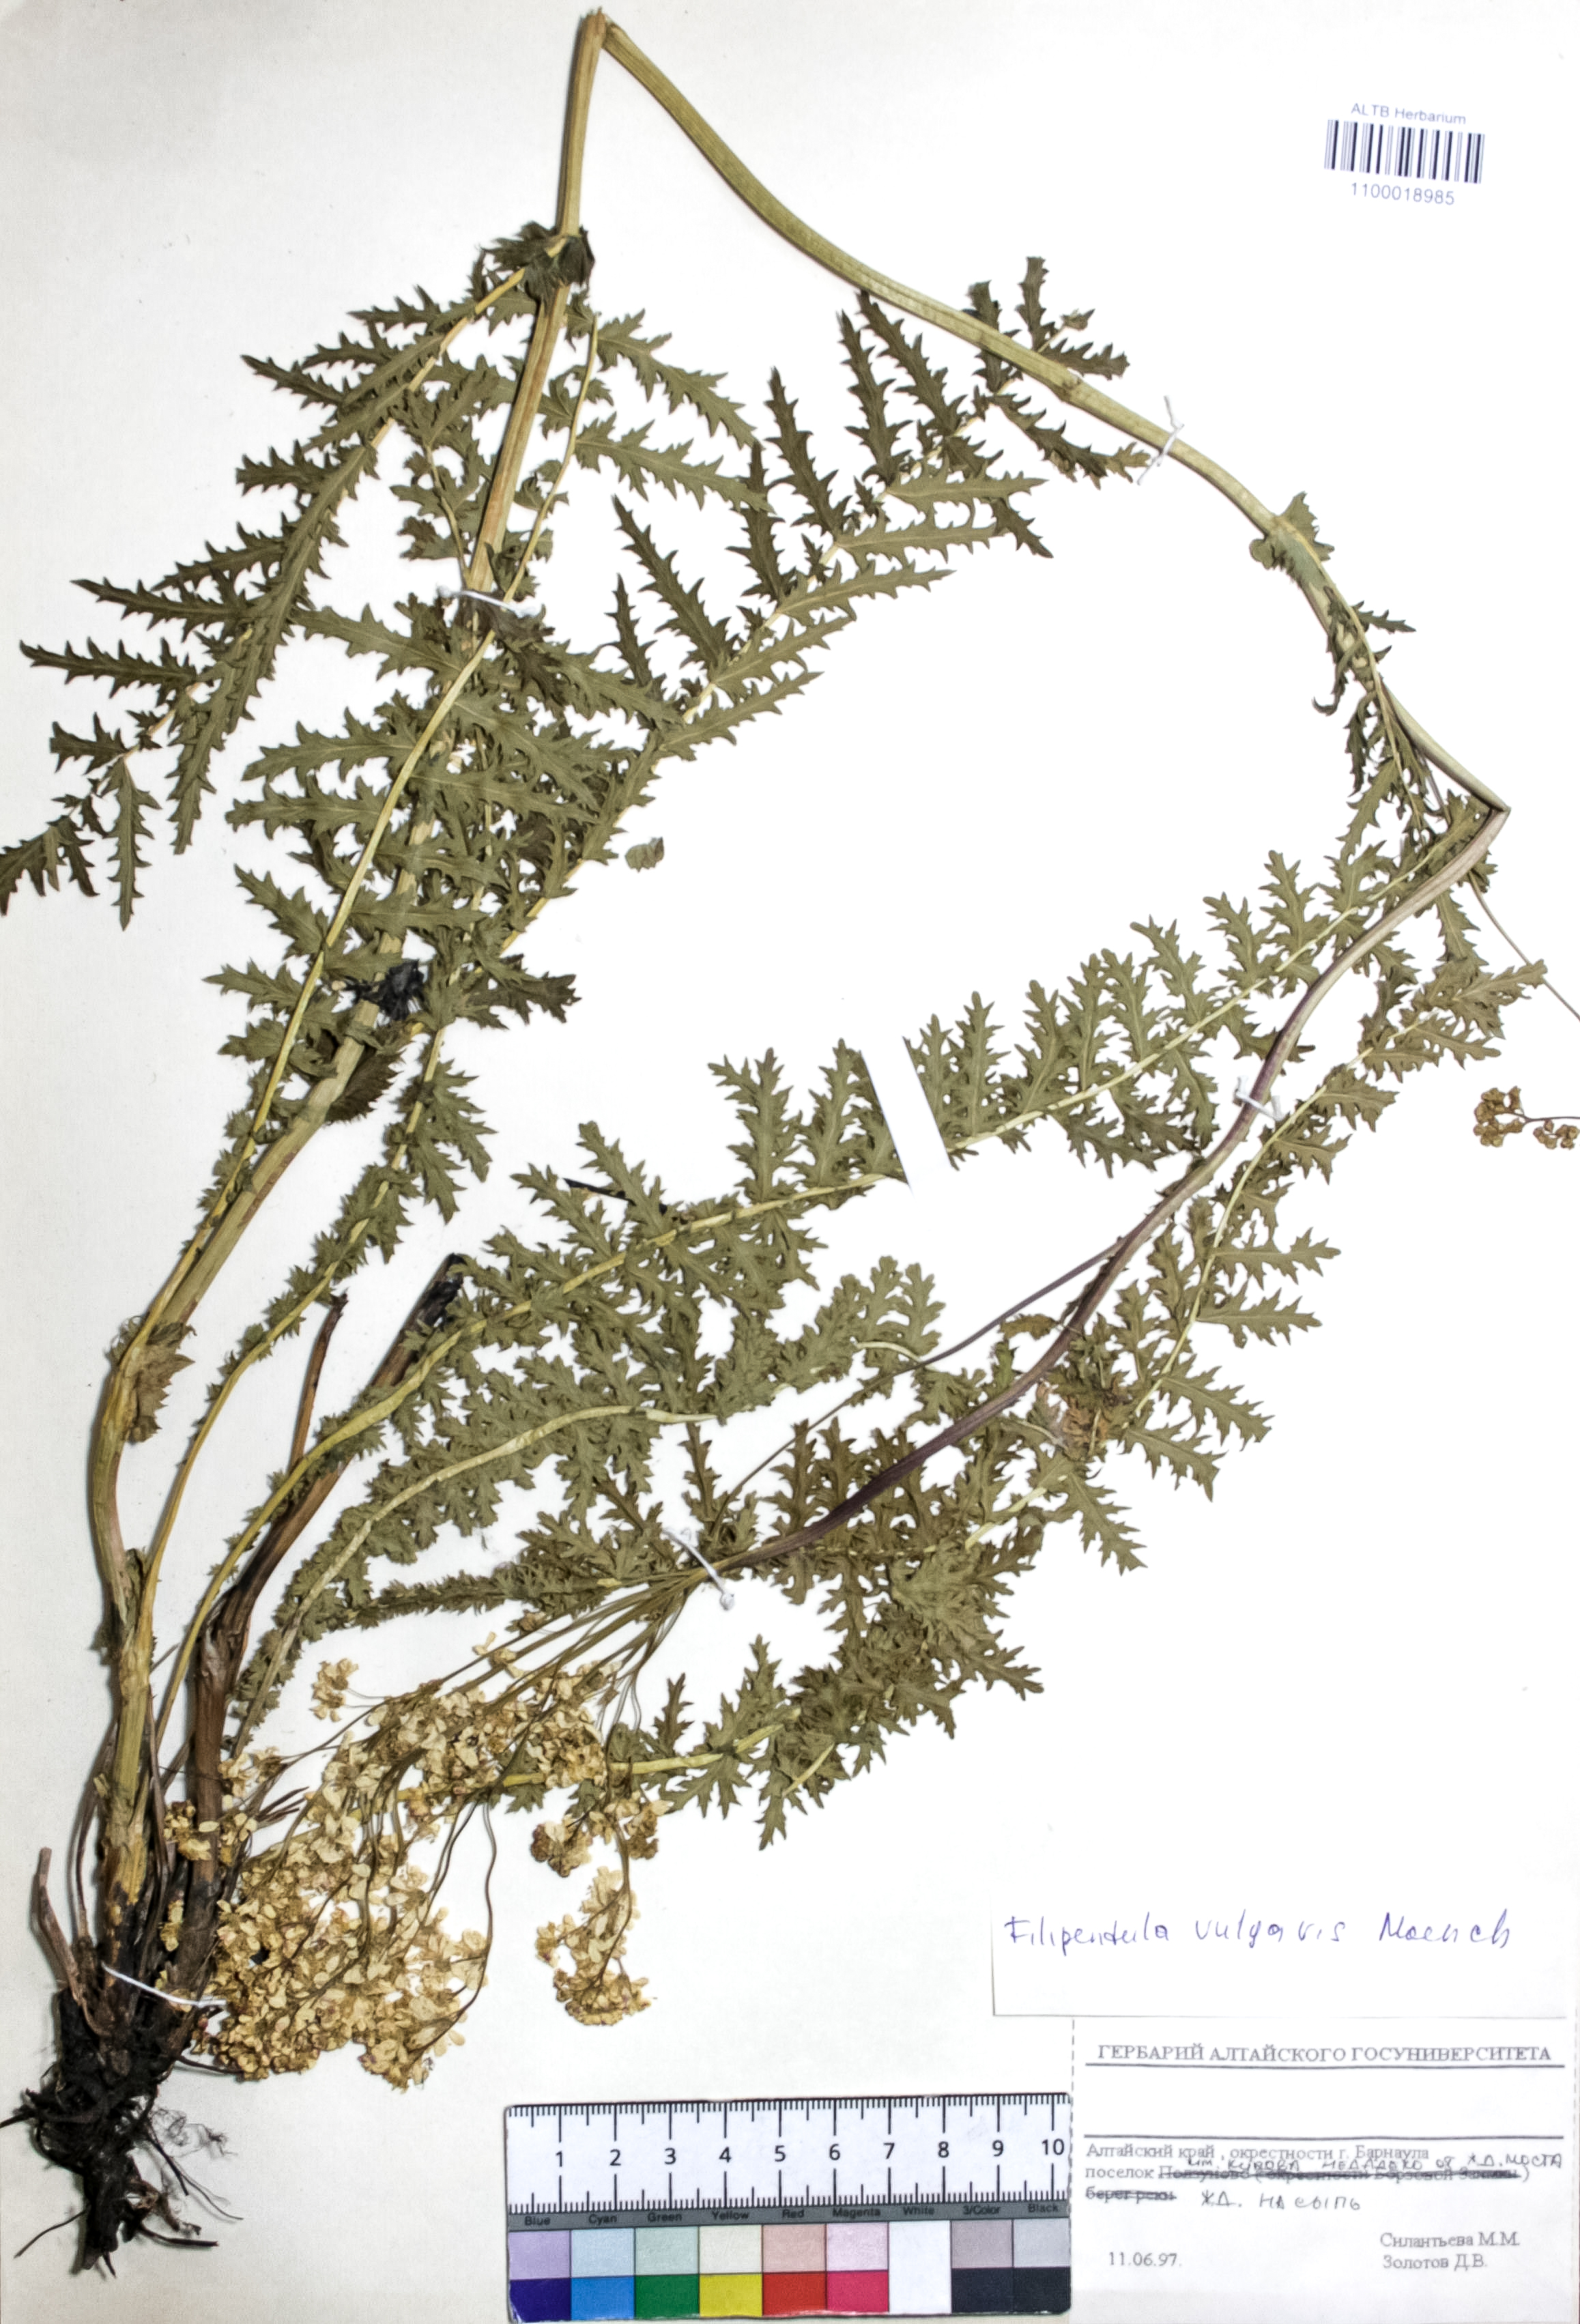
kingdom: Plantae
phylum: Tracheophyta
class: Magnoliopsida
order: Rosales
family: Rosaceae
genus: Filipendula
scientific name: Filipendula vulgaris
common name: Dropwort
